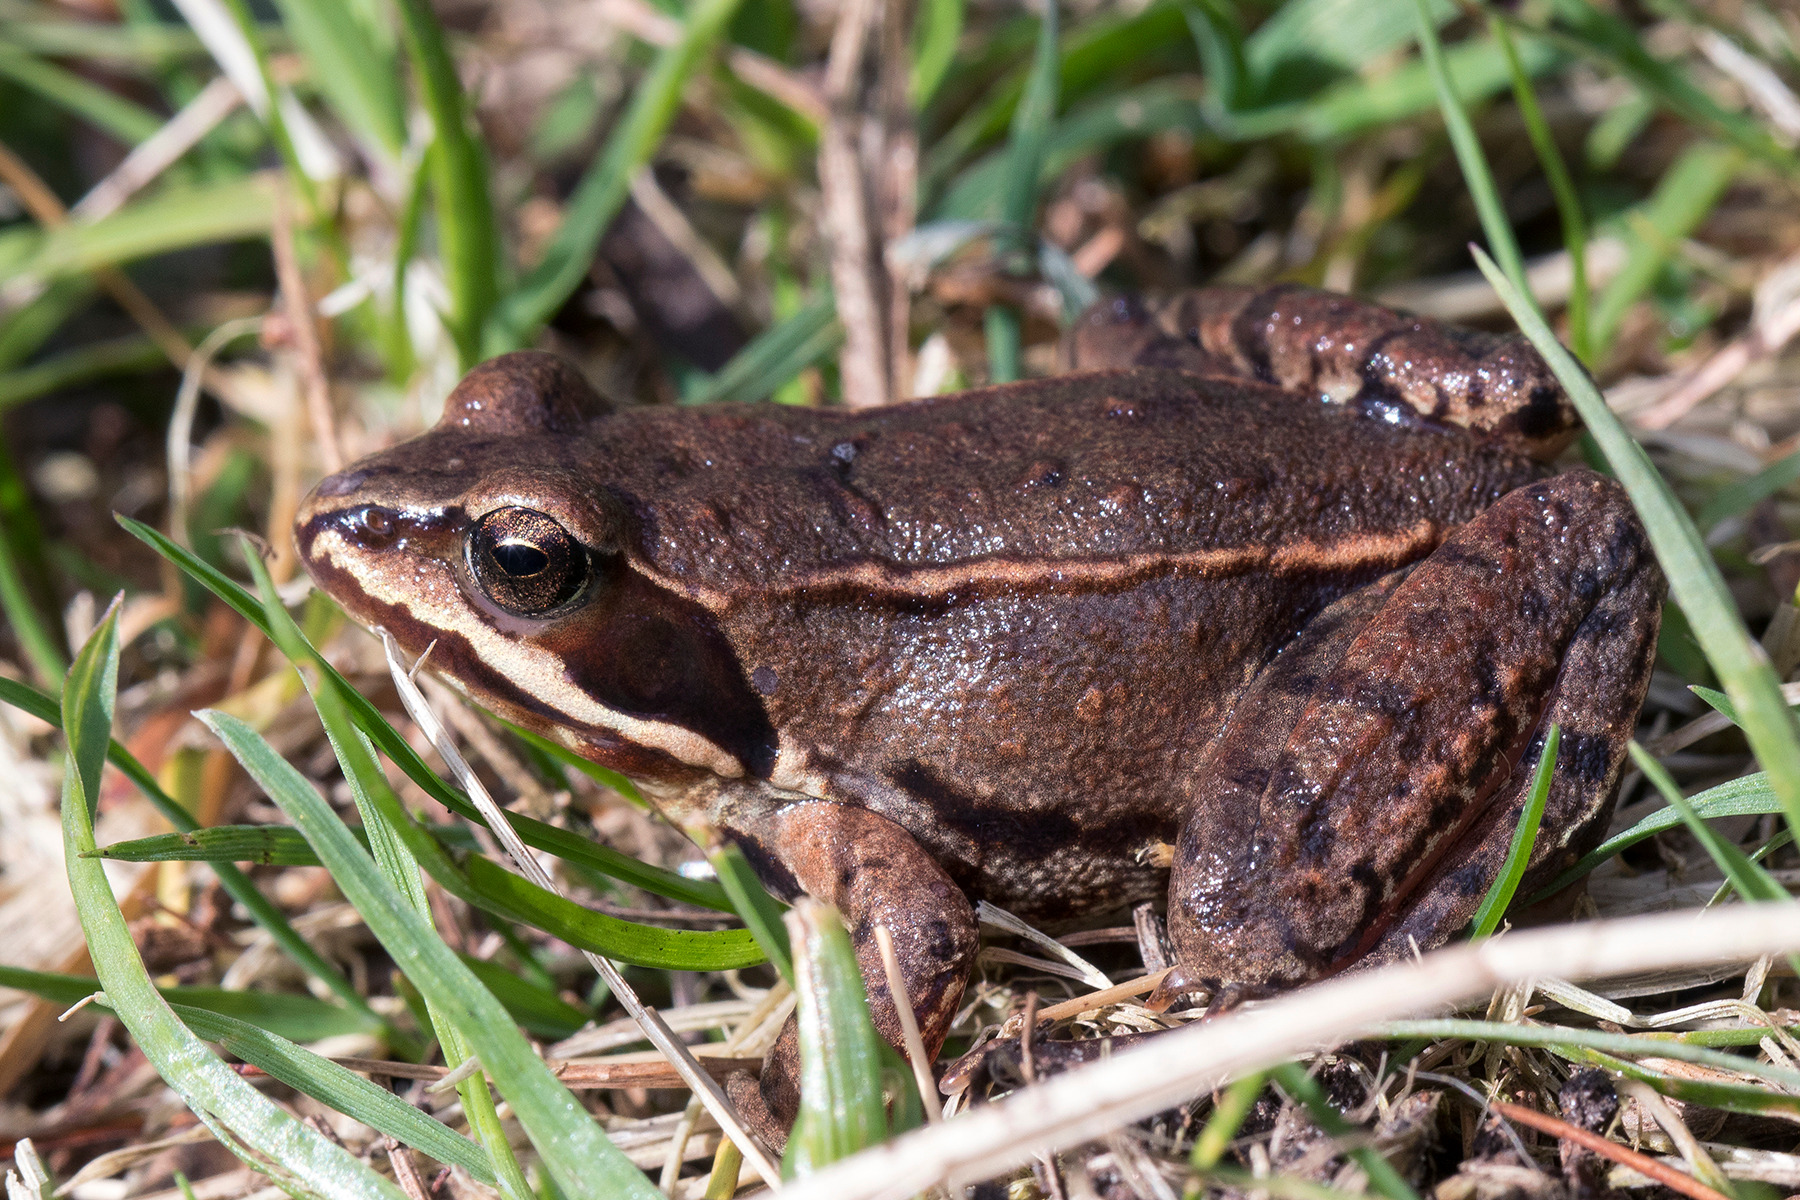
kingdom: Animalia
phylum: Chordata
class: Amphibia
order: Anura
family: Ranidae
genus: Rana
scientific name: Rana arvalis
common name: Spidssnudet frø
